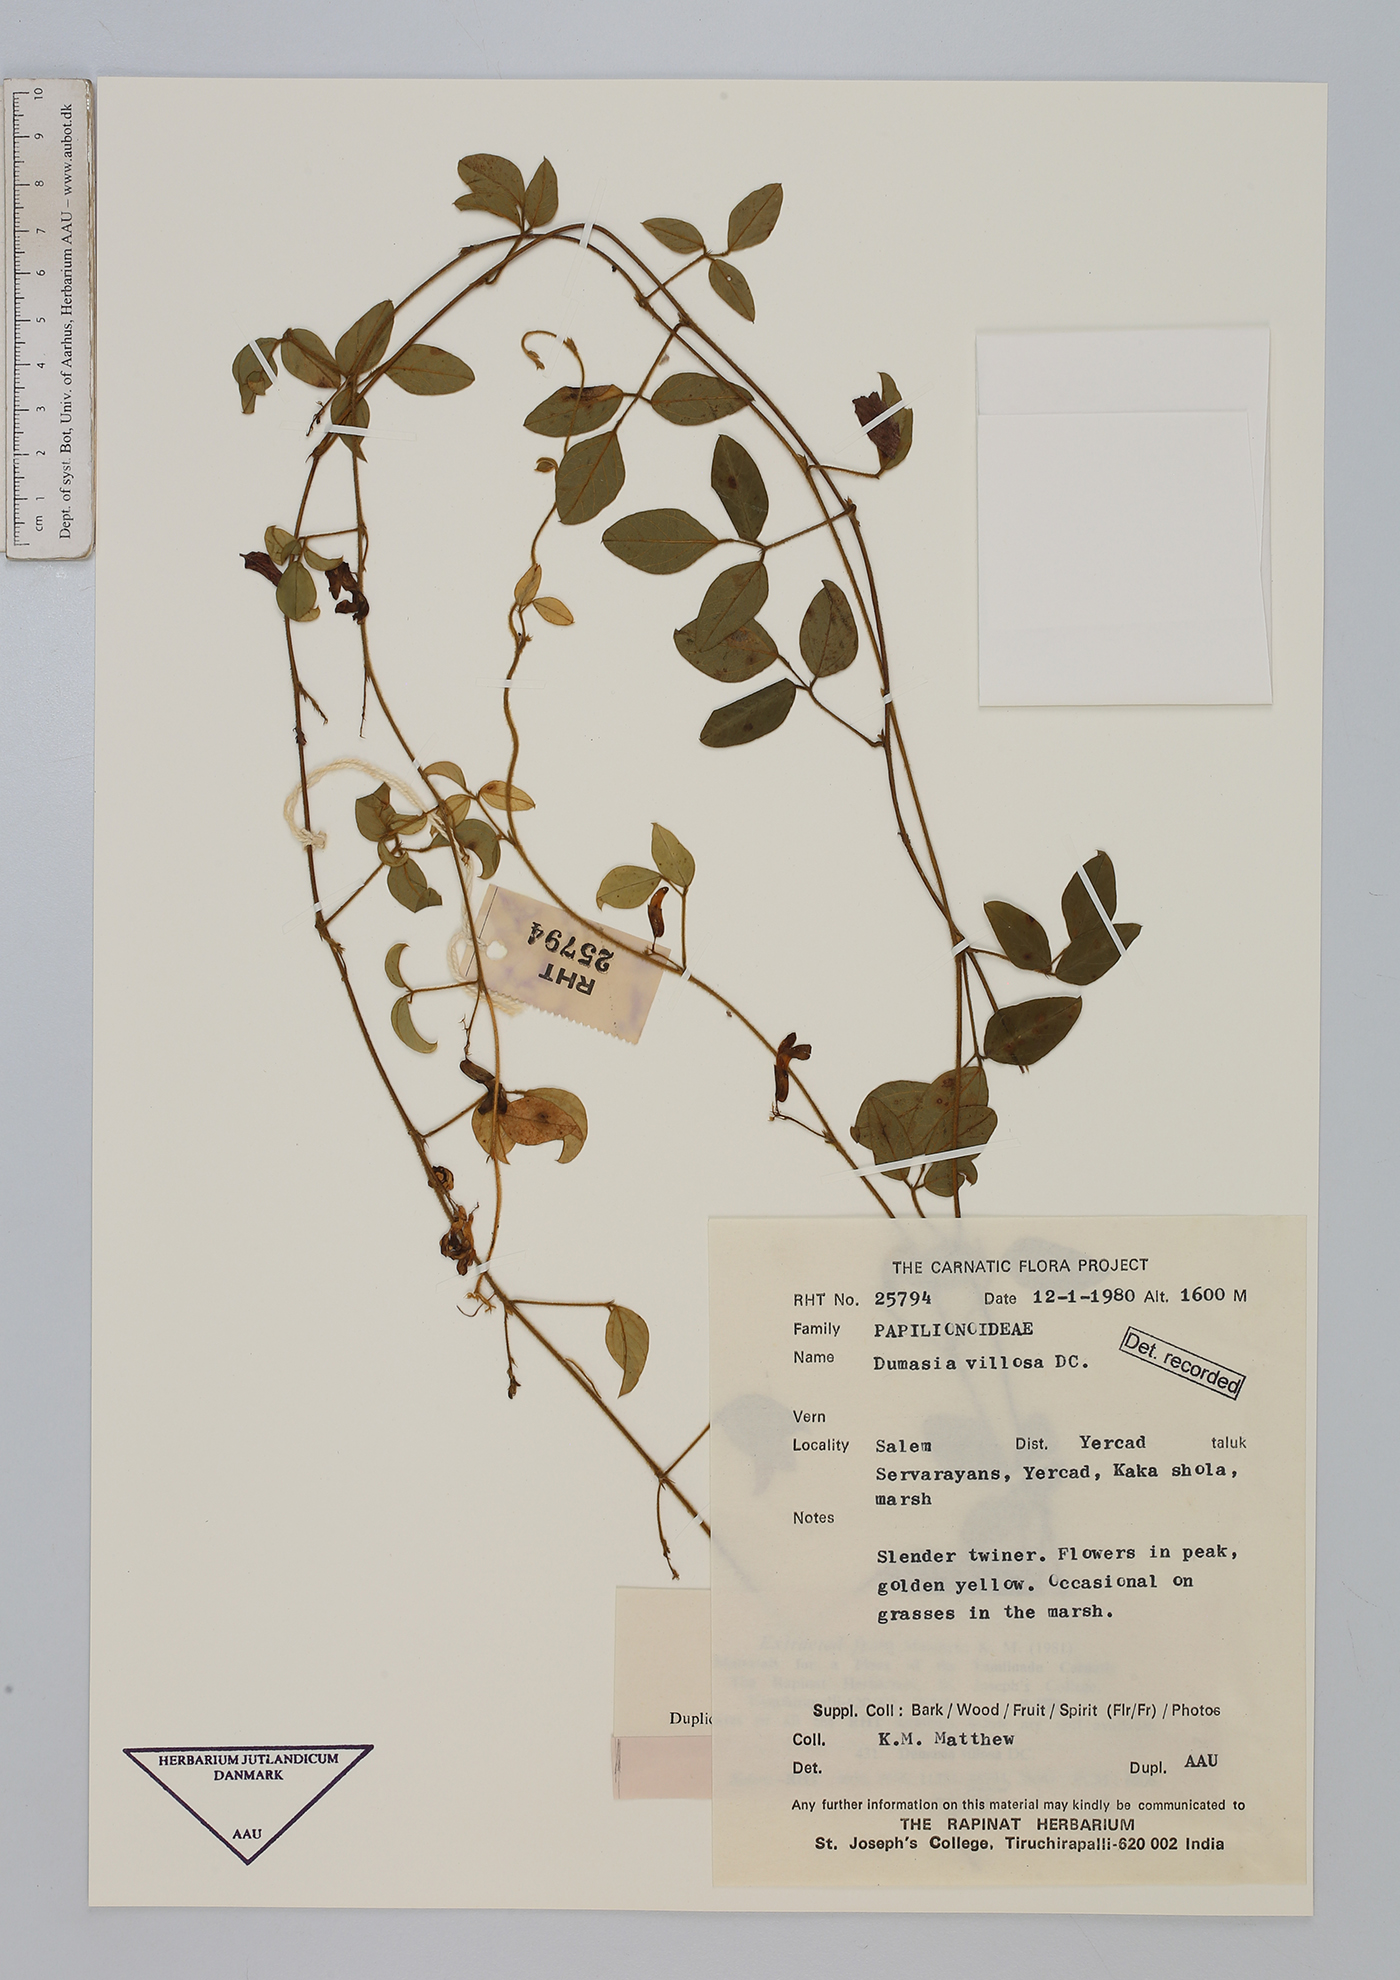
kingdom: Plantae
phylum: Tracheophyta
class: Magnoliopsida
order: Fabales
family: Fabaceae
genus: Dumasia
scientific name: Dumasia villosa
